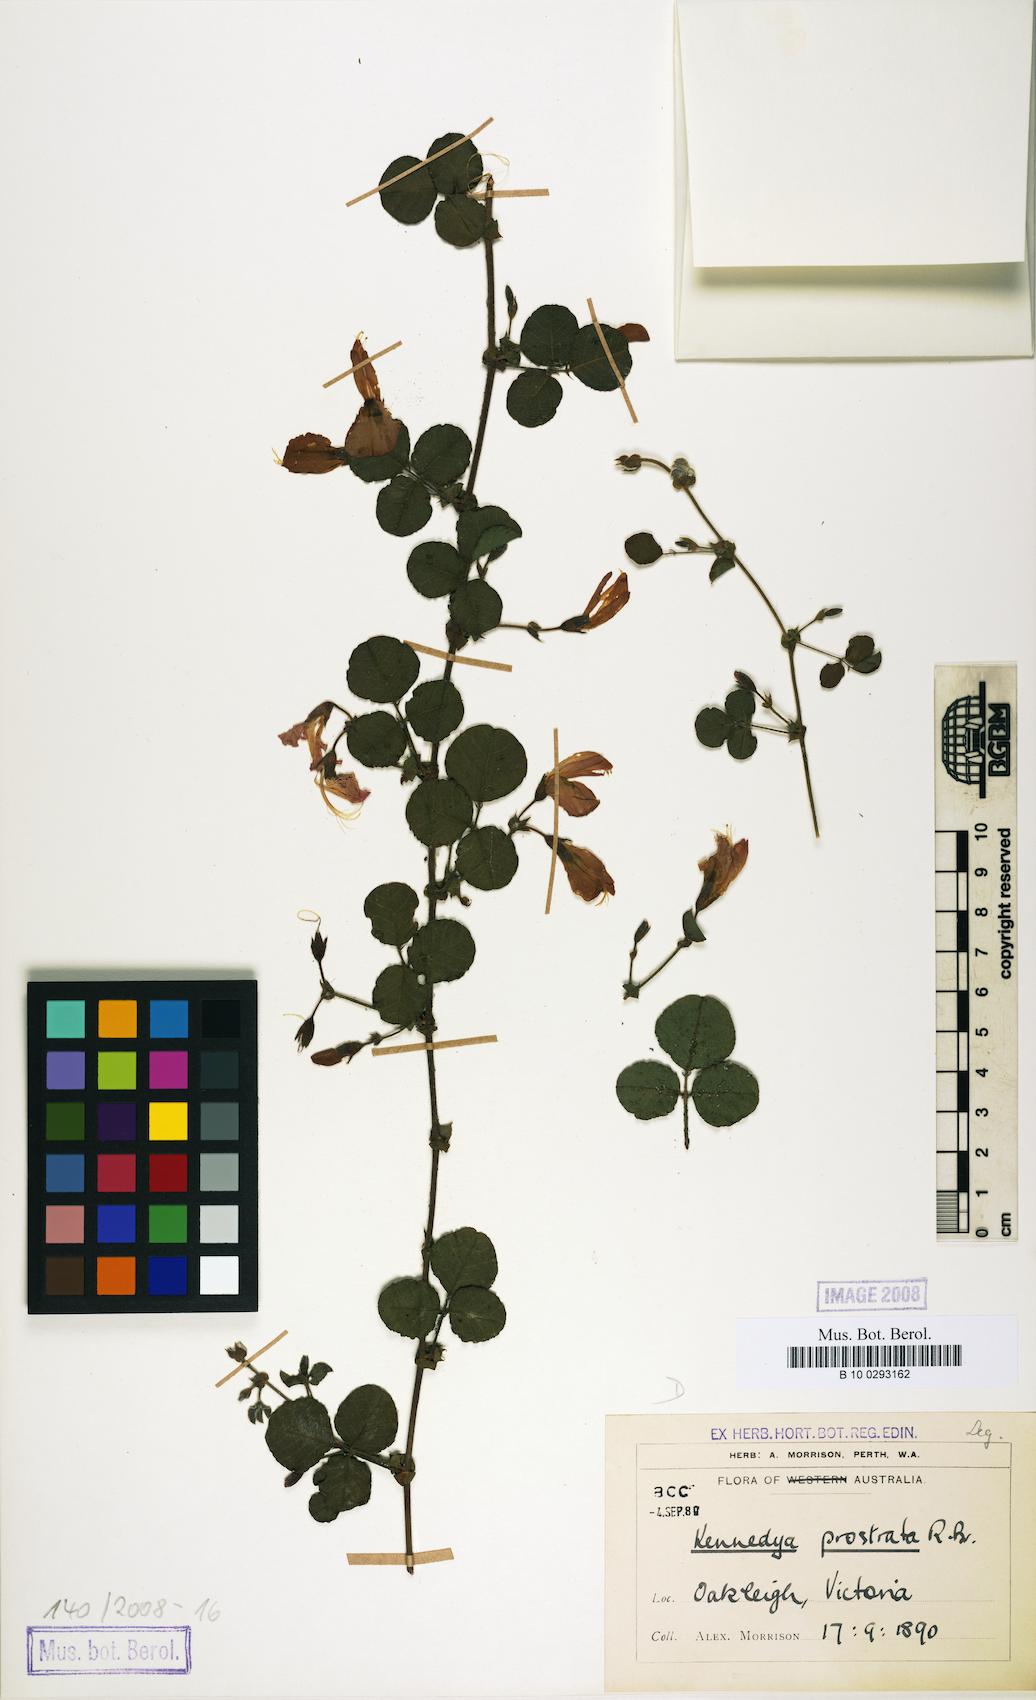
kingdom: Plantae
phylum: Tracheophyta
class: Magnoliopsida
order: Fabales
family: Fabaceae
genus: Kennedia
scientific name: Kennedia prostrata
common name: Running-postman
